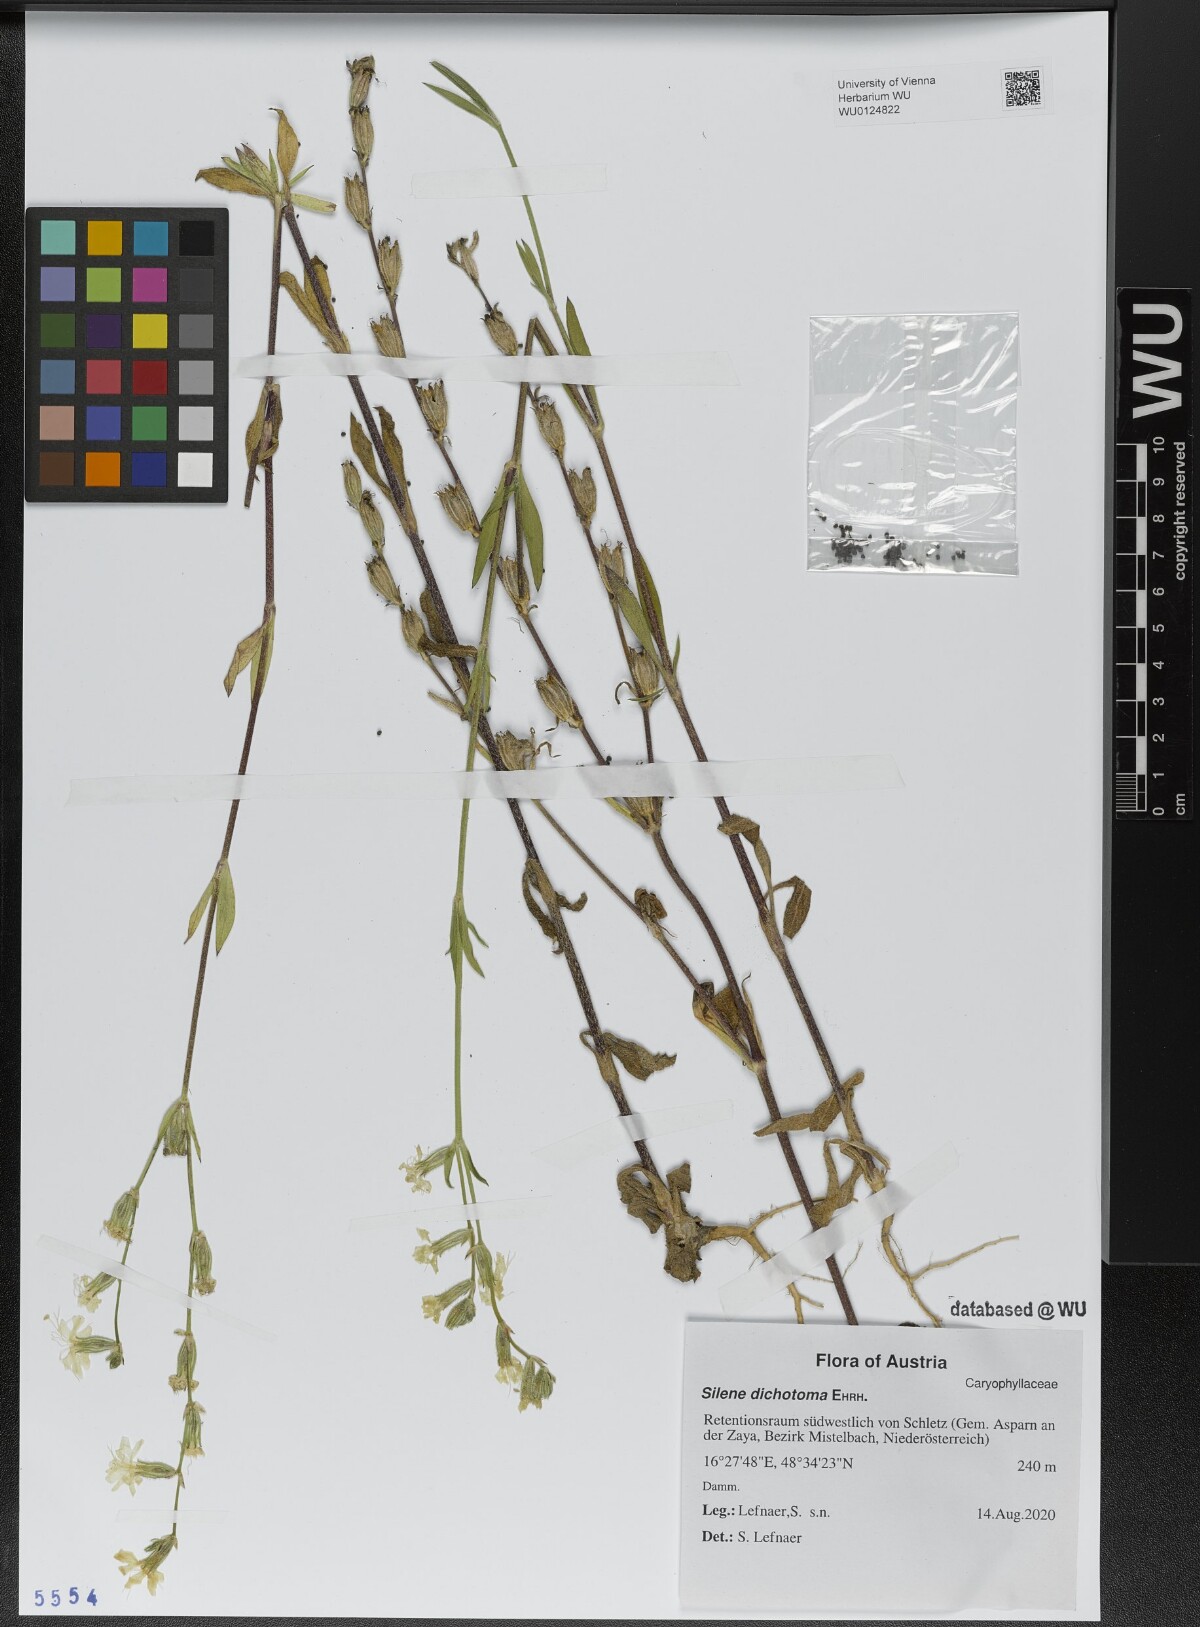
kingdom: Plantae
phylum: Tracheophyta
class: Magnoliopsida
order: Caryophyllales
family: Caryophyllaceae
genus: Silene
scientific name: Silene dichotoma
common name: Forked catchfly
